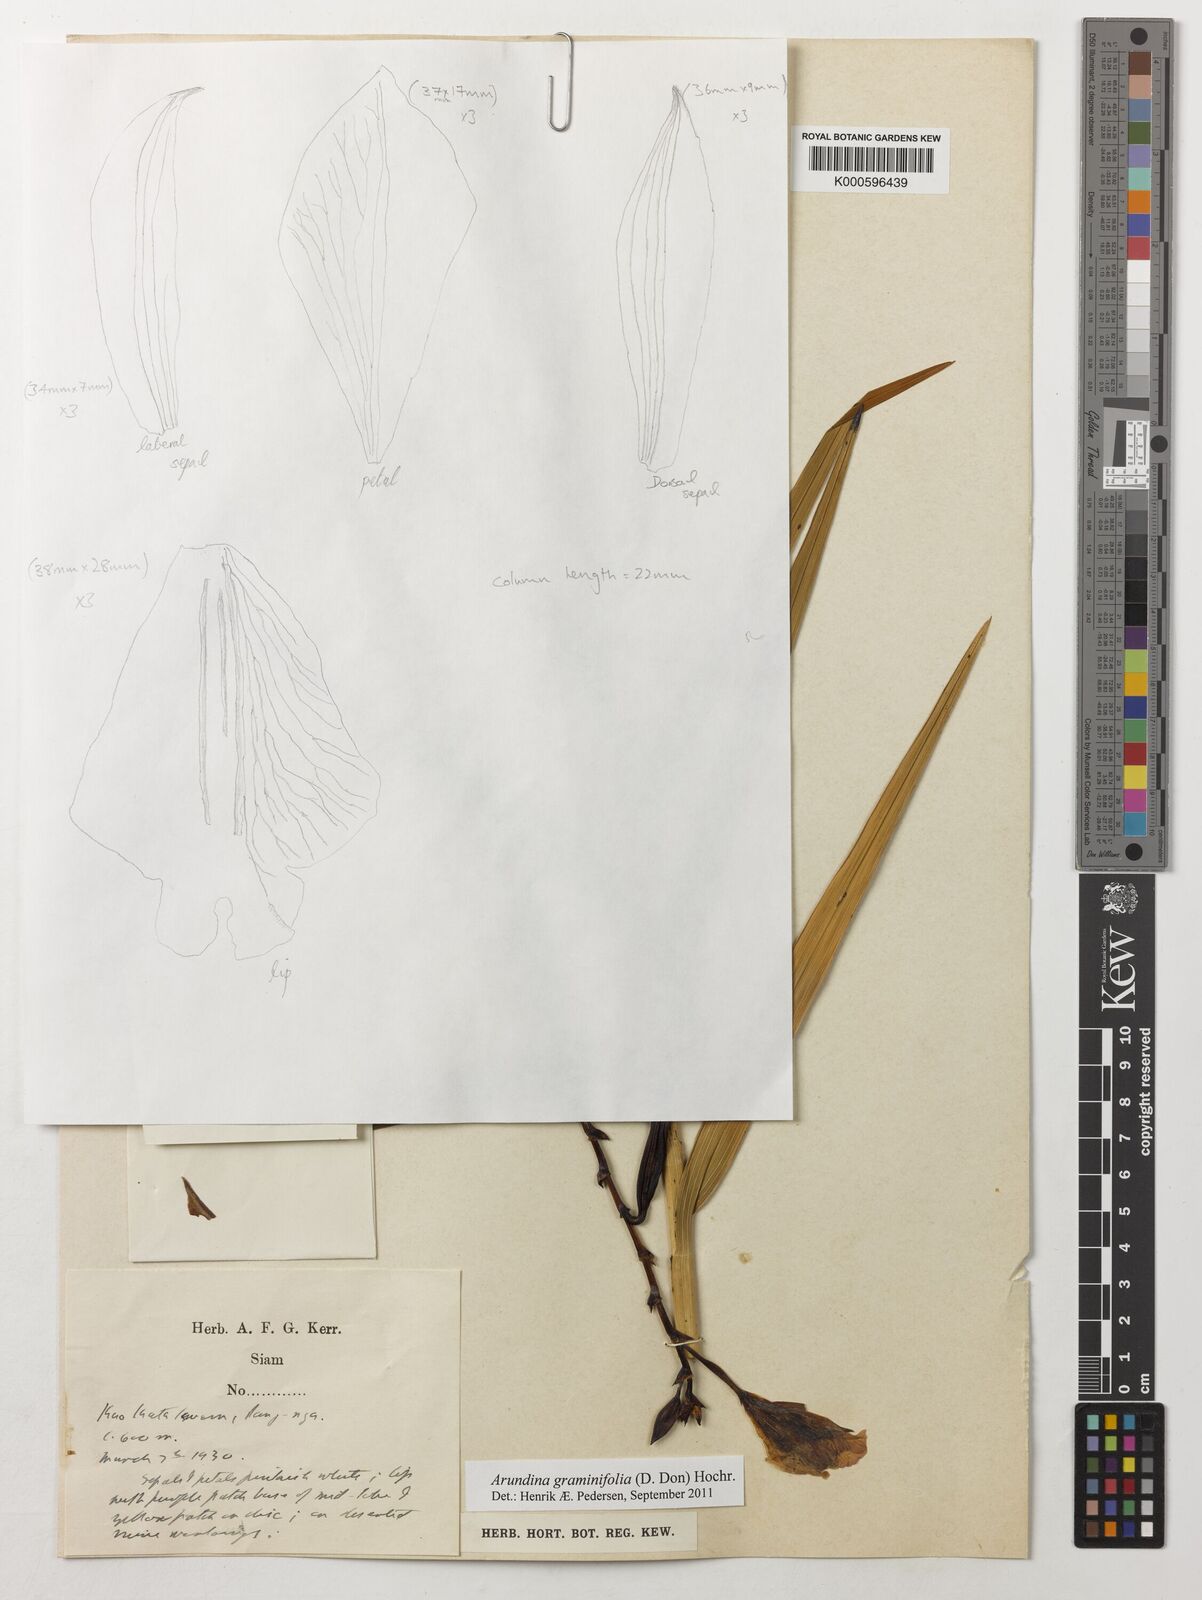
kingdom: Plantae
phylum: Tracheophyta
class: Liliopsida
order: Asparagales
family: Orchidaceae
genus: Arundina
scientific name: Arundina graminifolia
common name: Bamboo orchid
